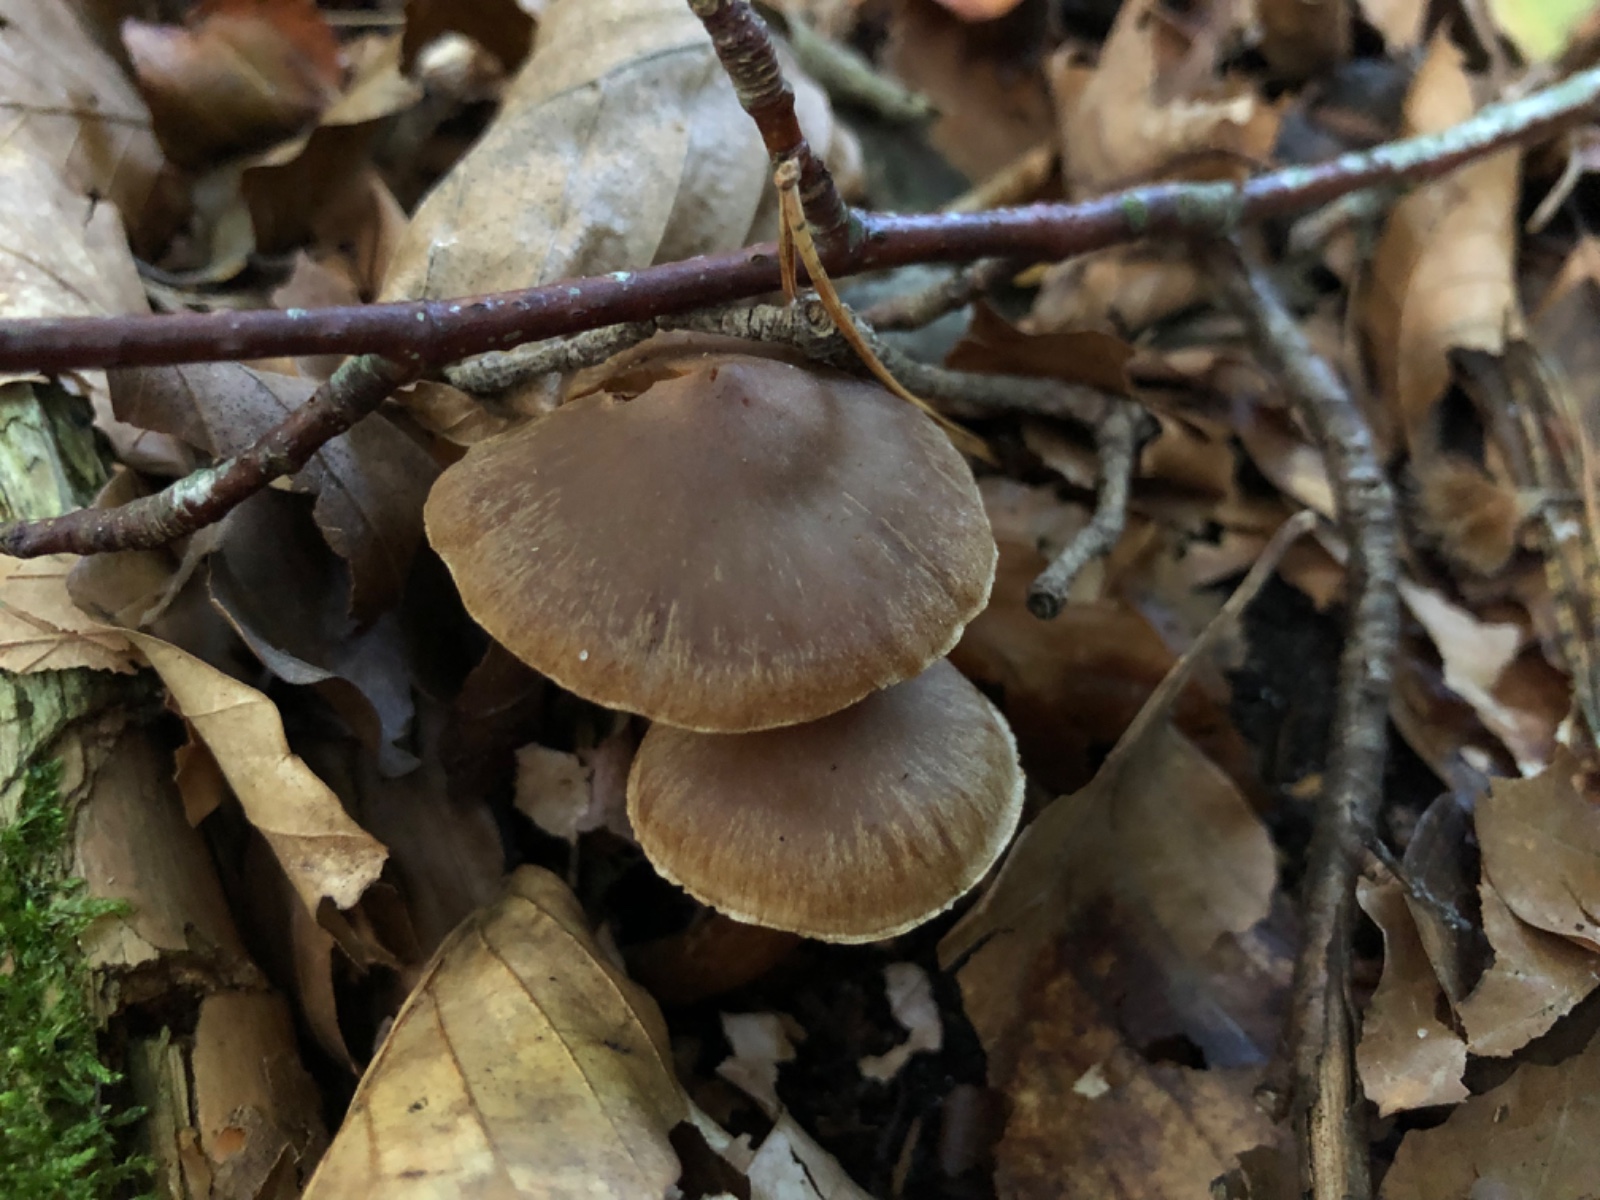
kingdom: Fungi
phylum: Basidiomycota
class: Agaricomycetes
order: Agaricales
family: Cortinariaceae
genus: Cortinarius
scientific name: Cortinarius
